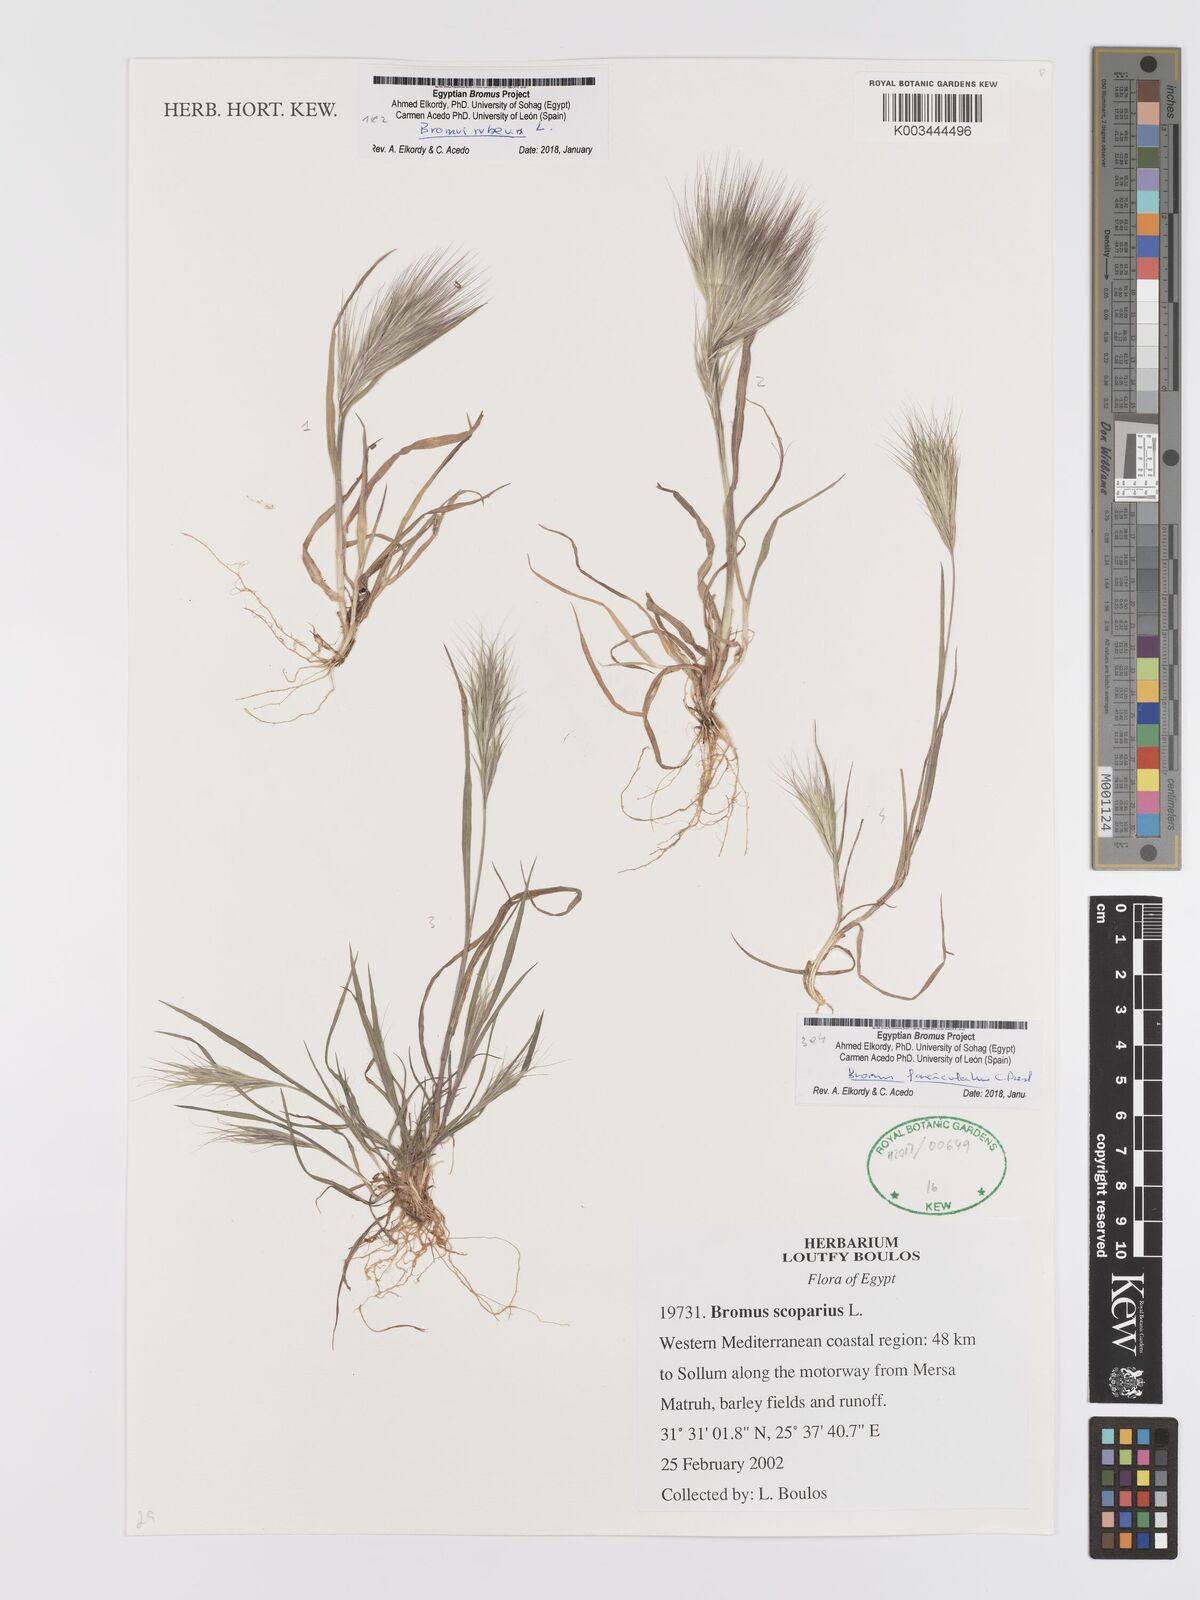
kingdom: Plantae
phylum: Tracheophyta
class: Liliopsida
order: Poales
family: Poaceae
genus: Bromus
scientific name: Bromus fasciculatus
